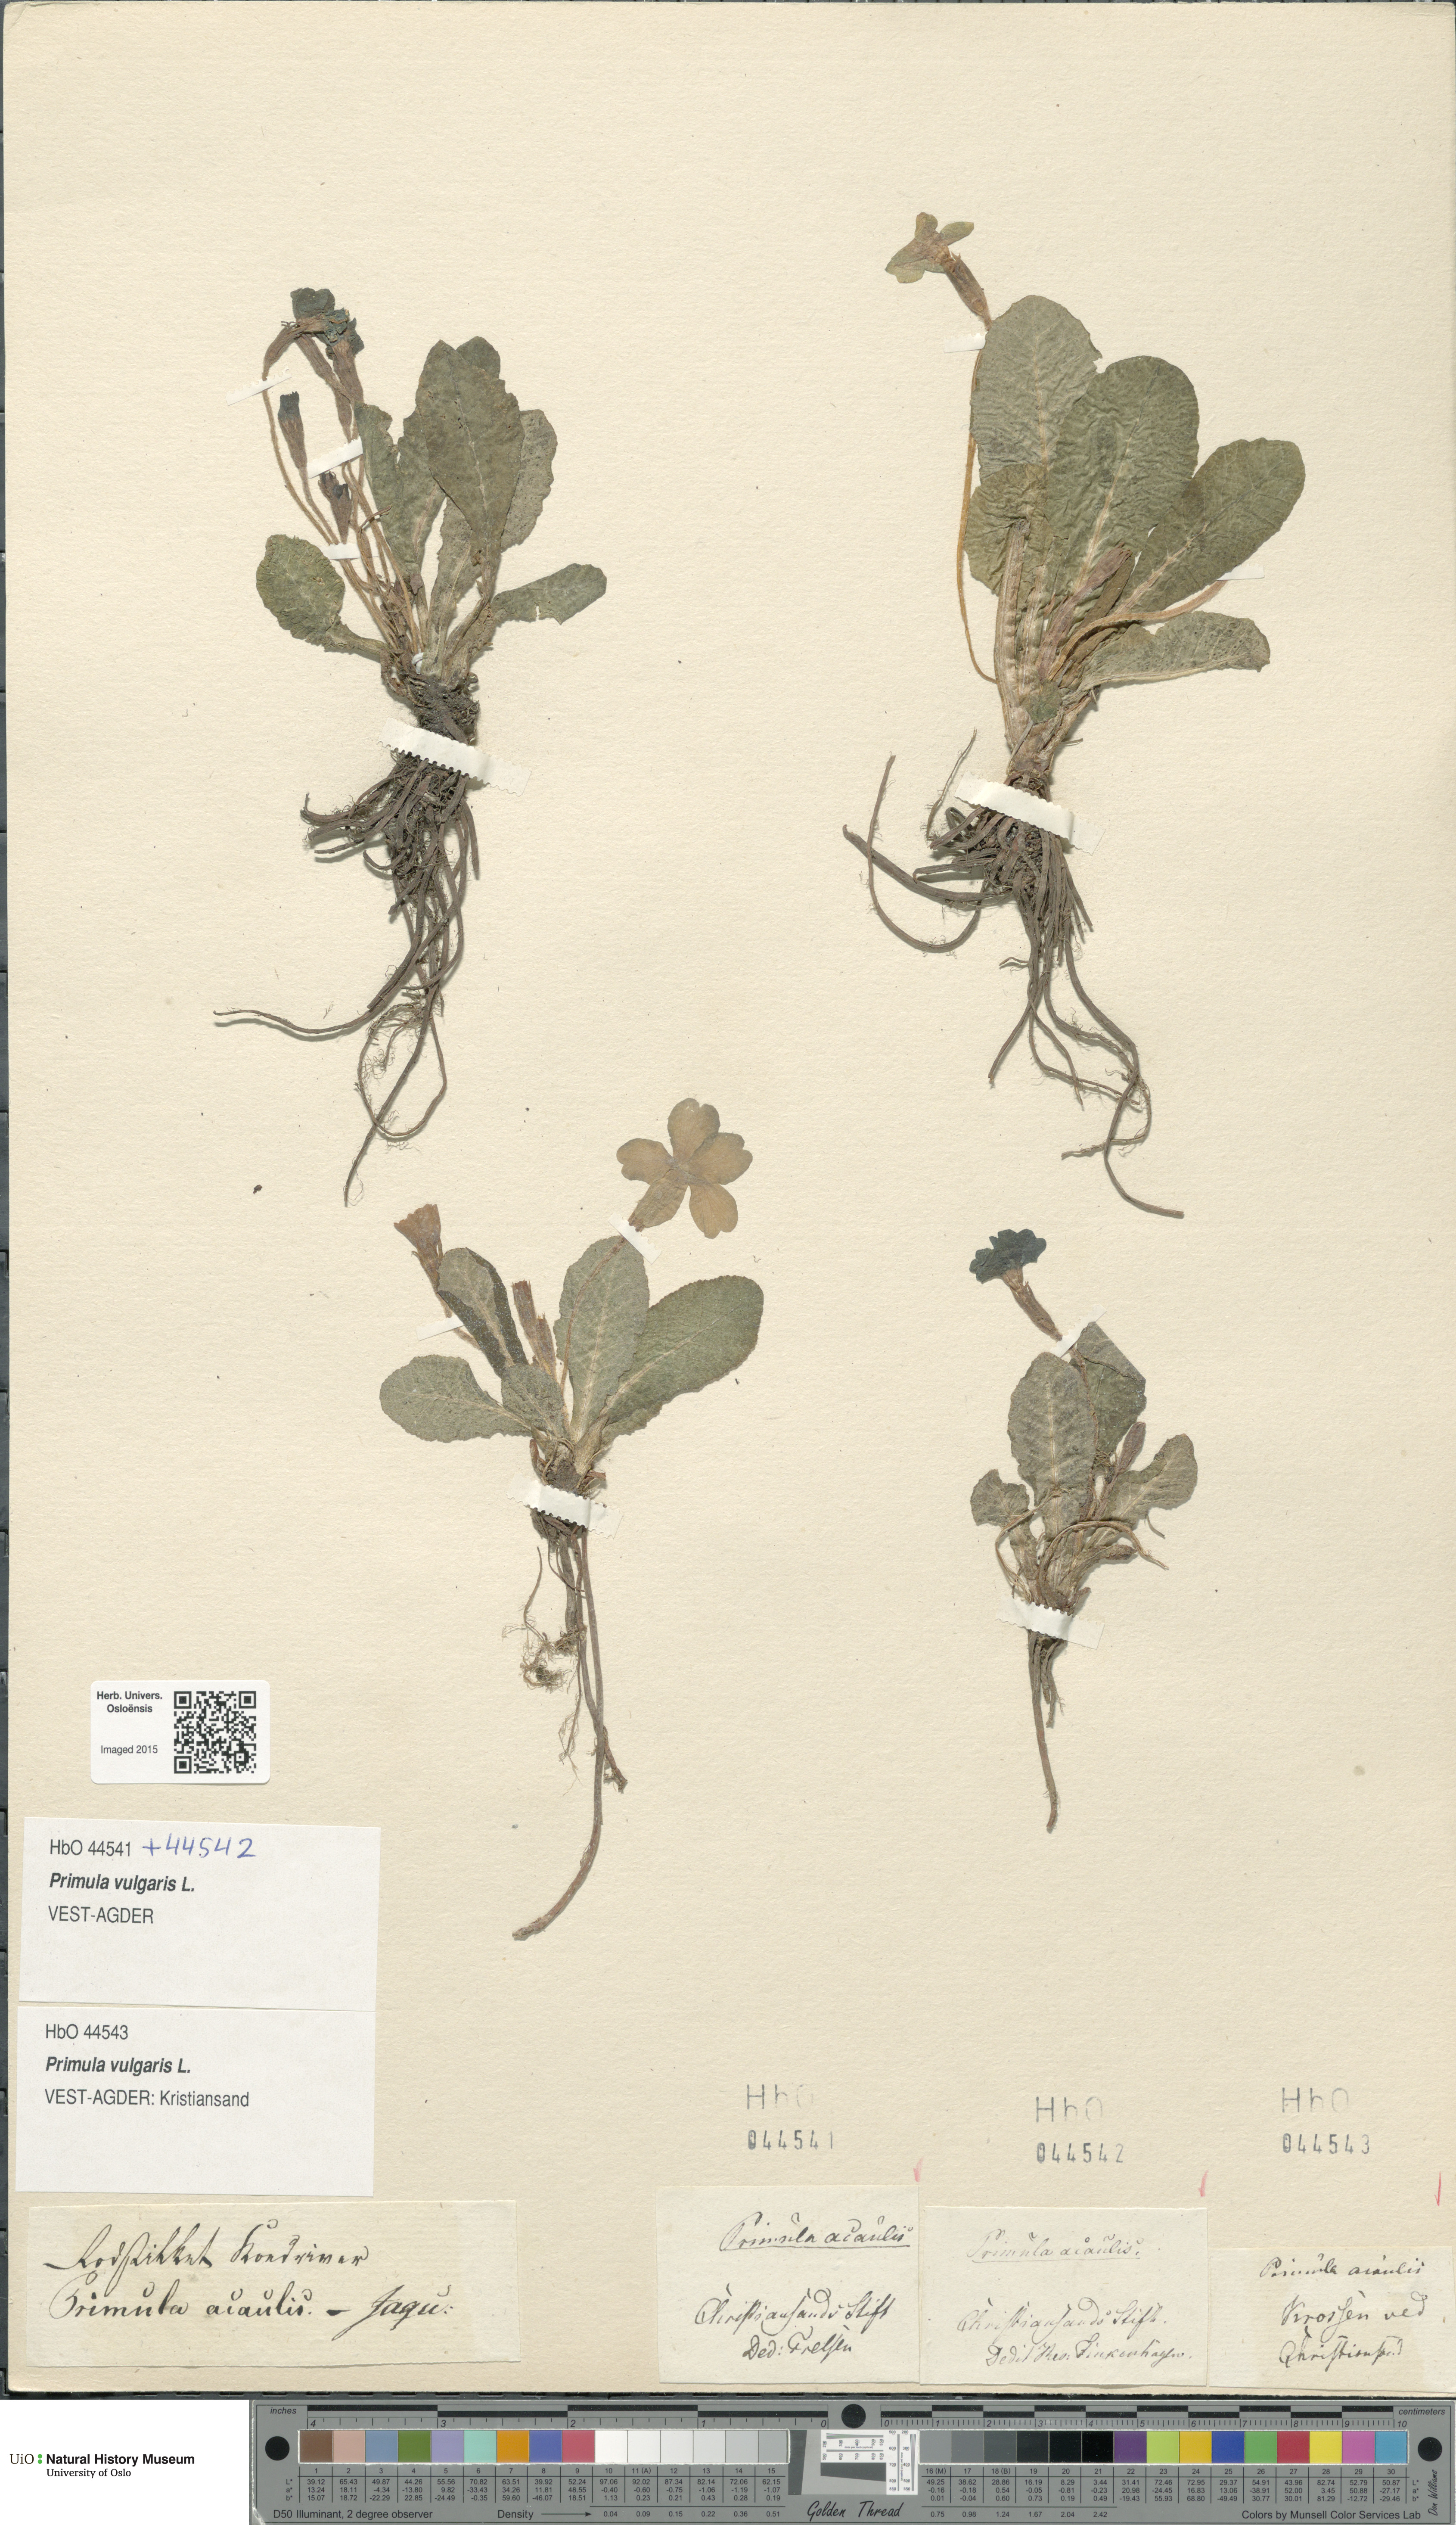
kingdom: Plantae
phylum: Tracheophyta
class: Magnoliopsida
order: Ericales
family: Primulaceae
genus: Primula
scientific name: Primula vulgaris
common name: Primrose
